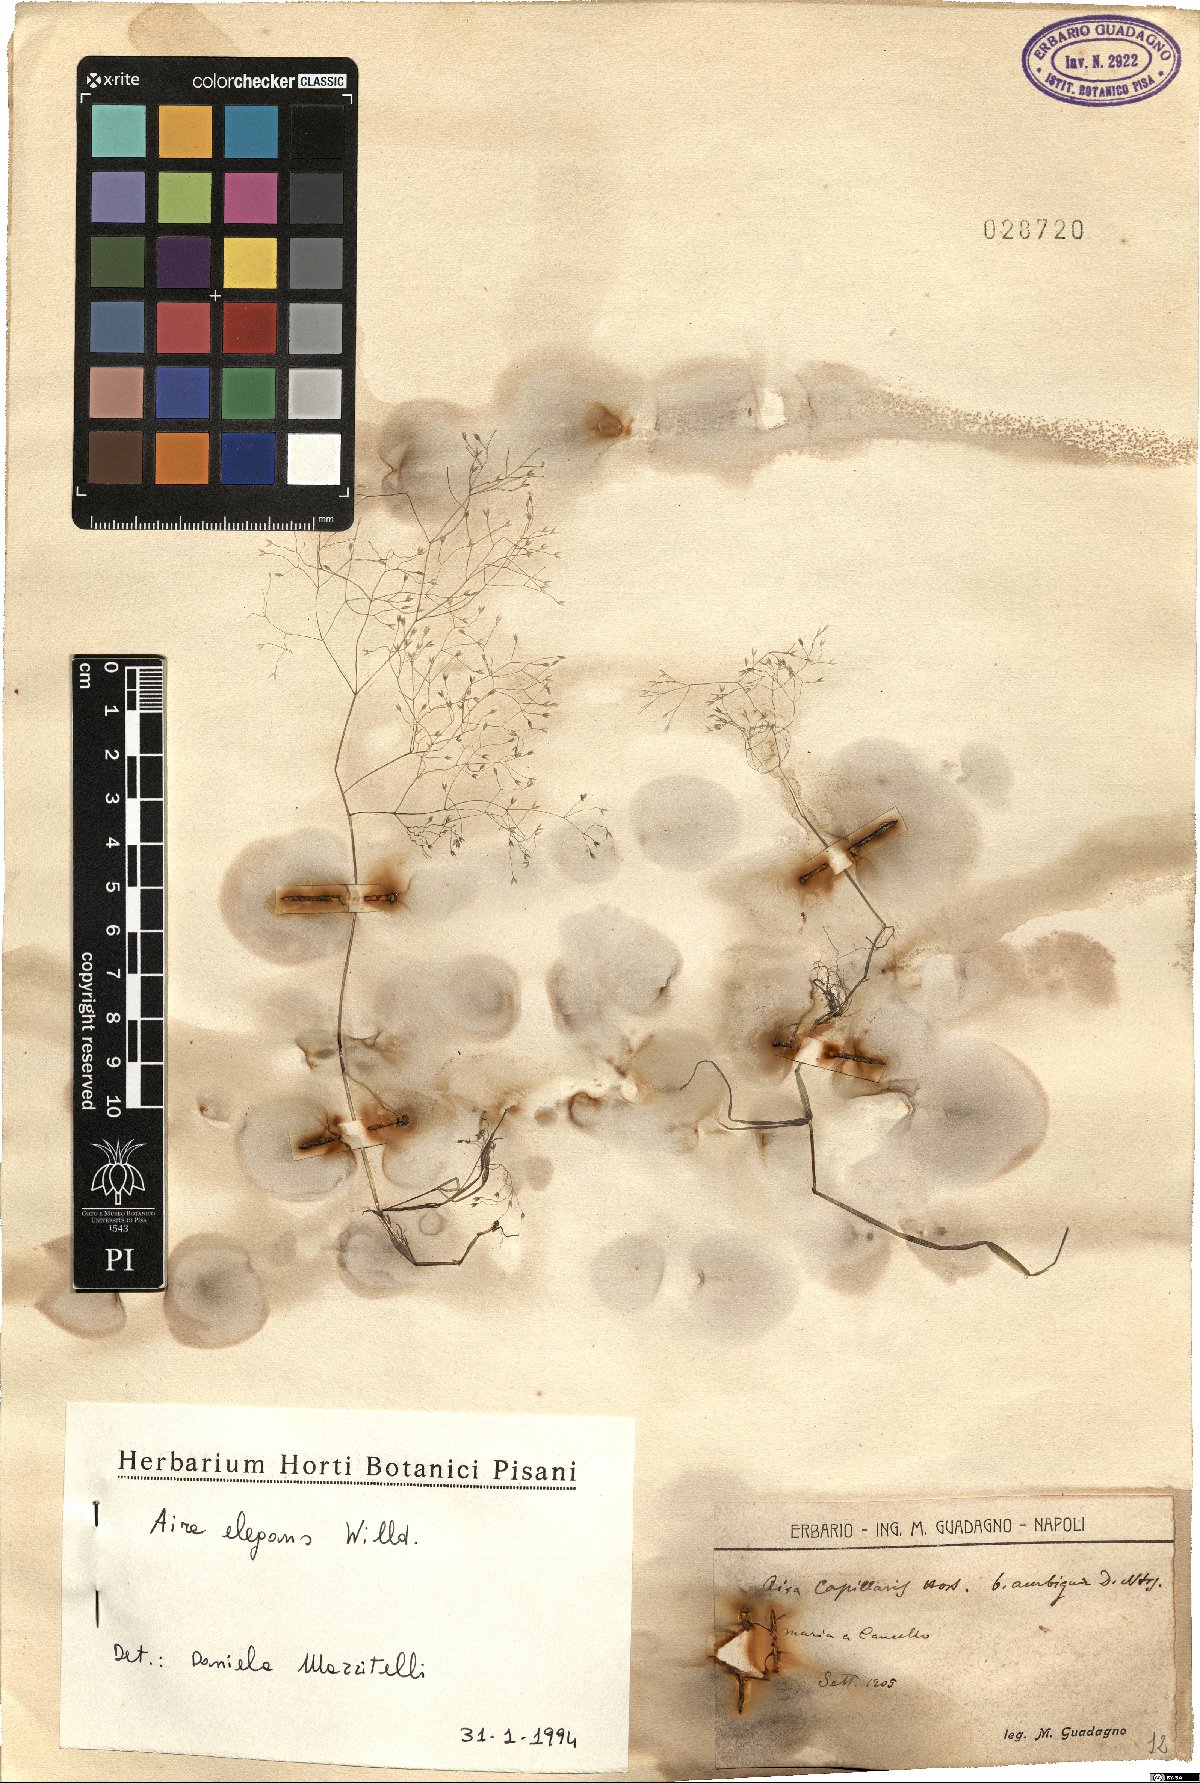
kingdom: Plantae
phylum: Tracheophyta
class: Liliopsida
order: Poales
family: Poaceae
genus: Aira
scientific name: Aira elegans
